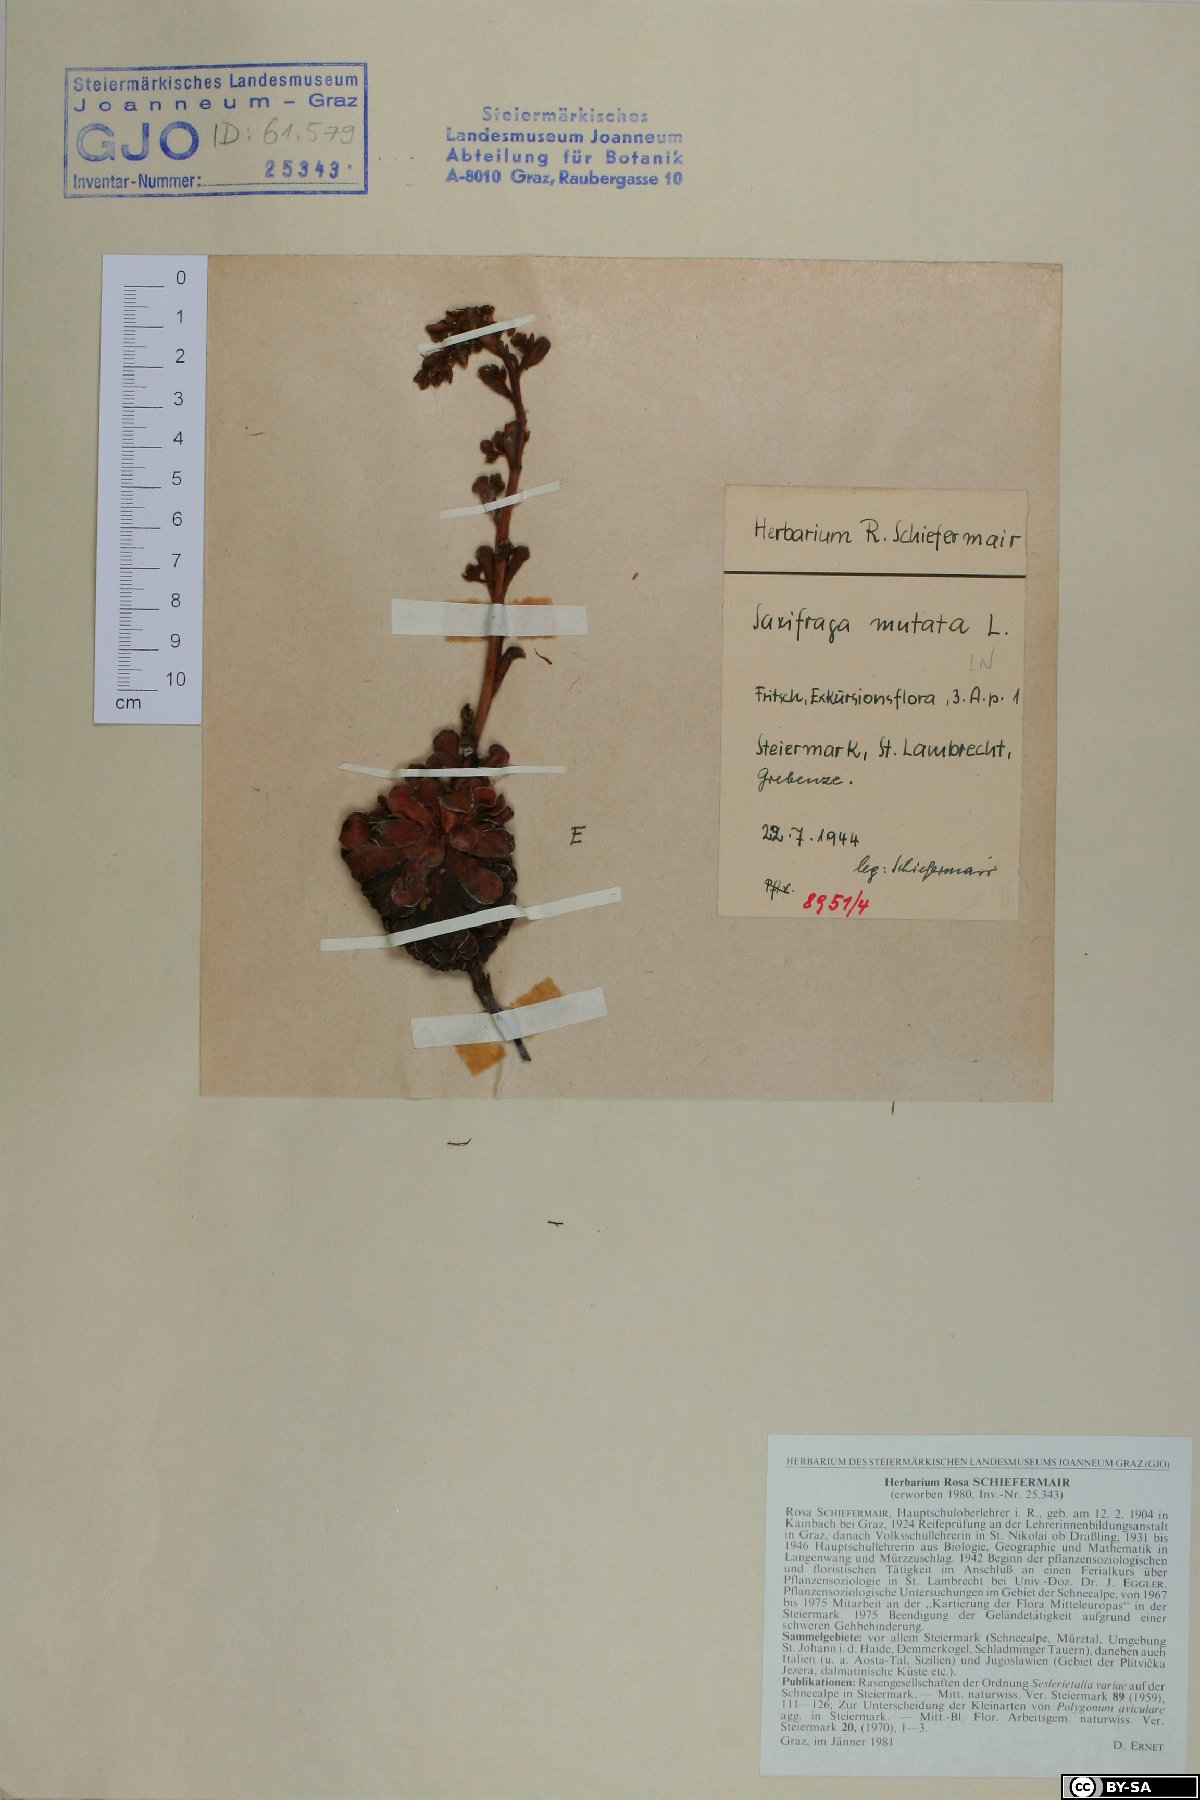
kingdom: Plantae
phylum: Tracheophyta
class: Magnoliopsida
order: Saxifragales
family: Saxifragaceae
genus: Saxifraga
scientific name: Saxifraga mutata
